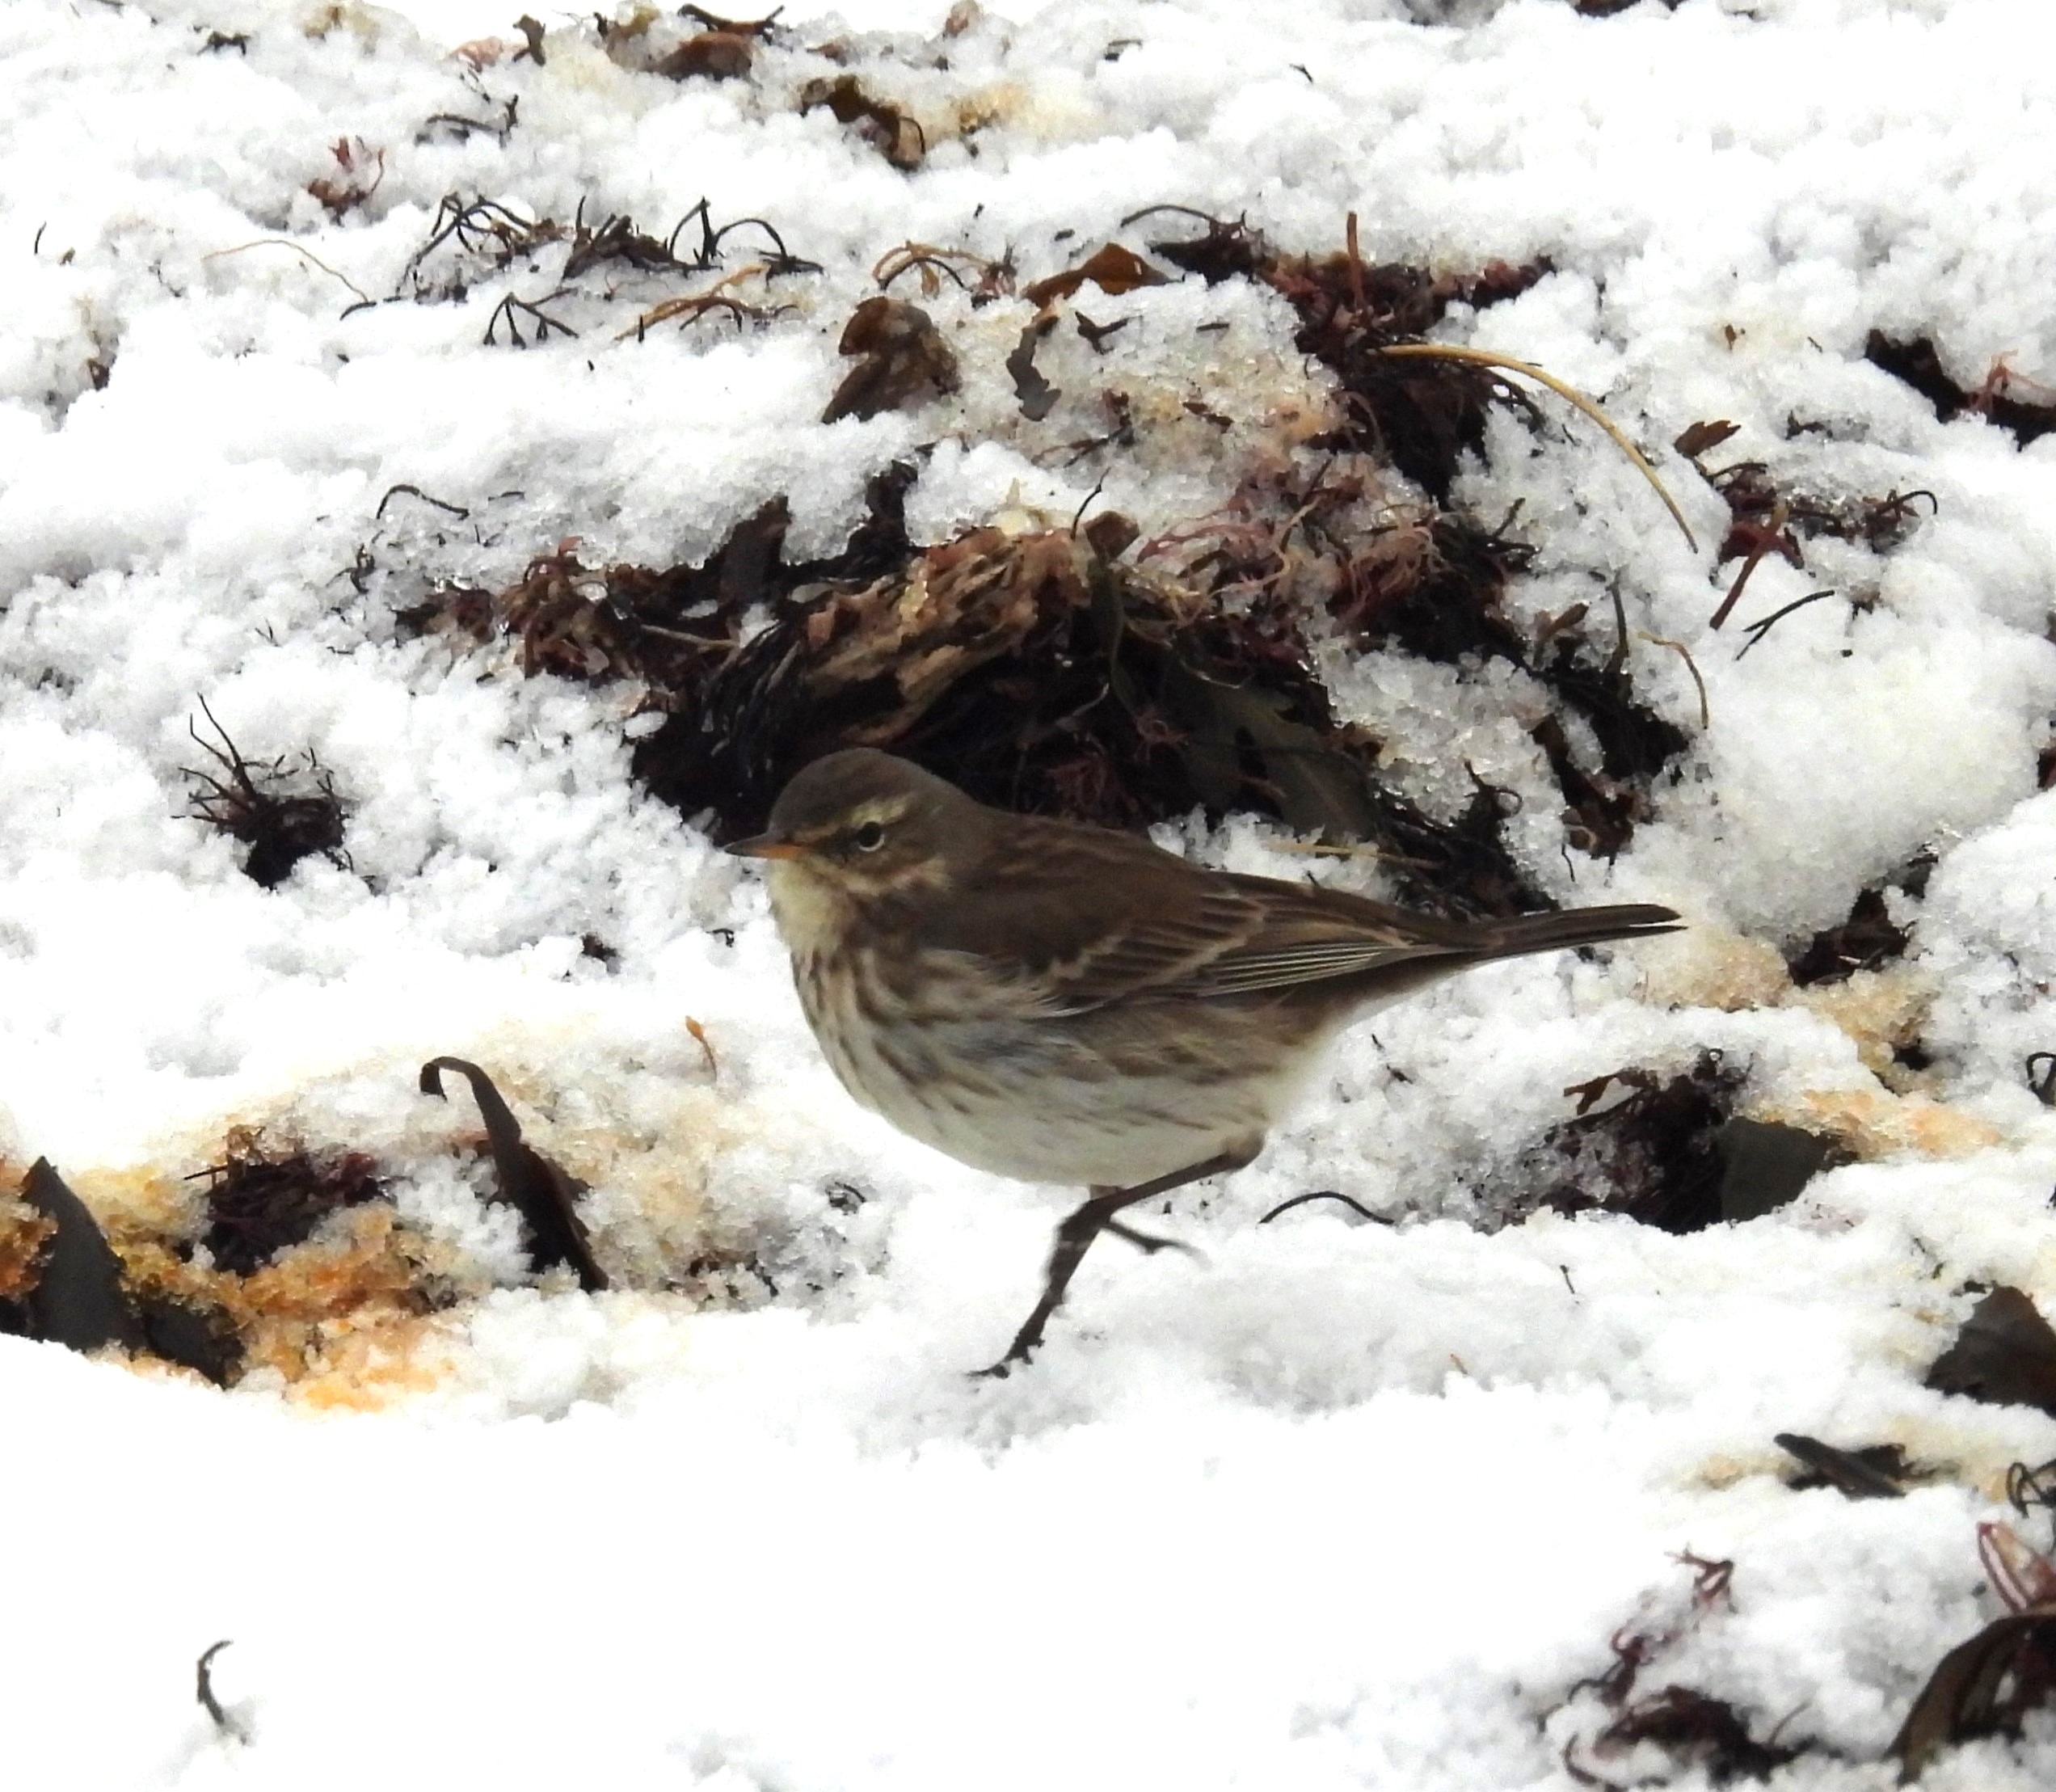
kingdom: Animalia
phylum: Chordata
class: Aves
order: Passeriformes
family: Motacillidae
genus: Anthus
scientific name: Anthus spinoletta
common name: Bjergpiber
